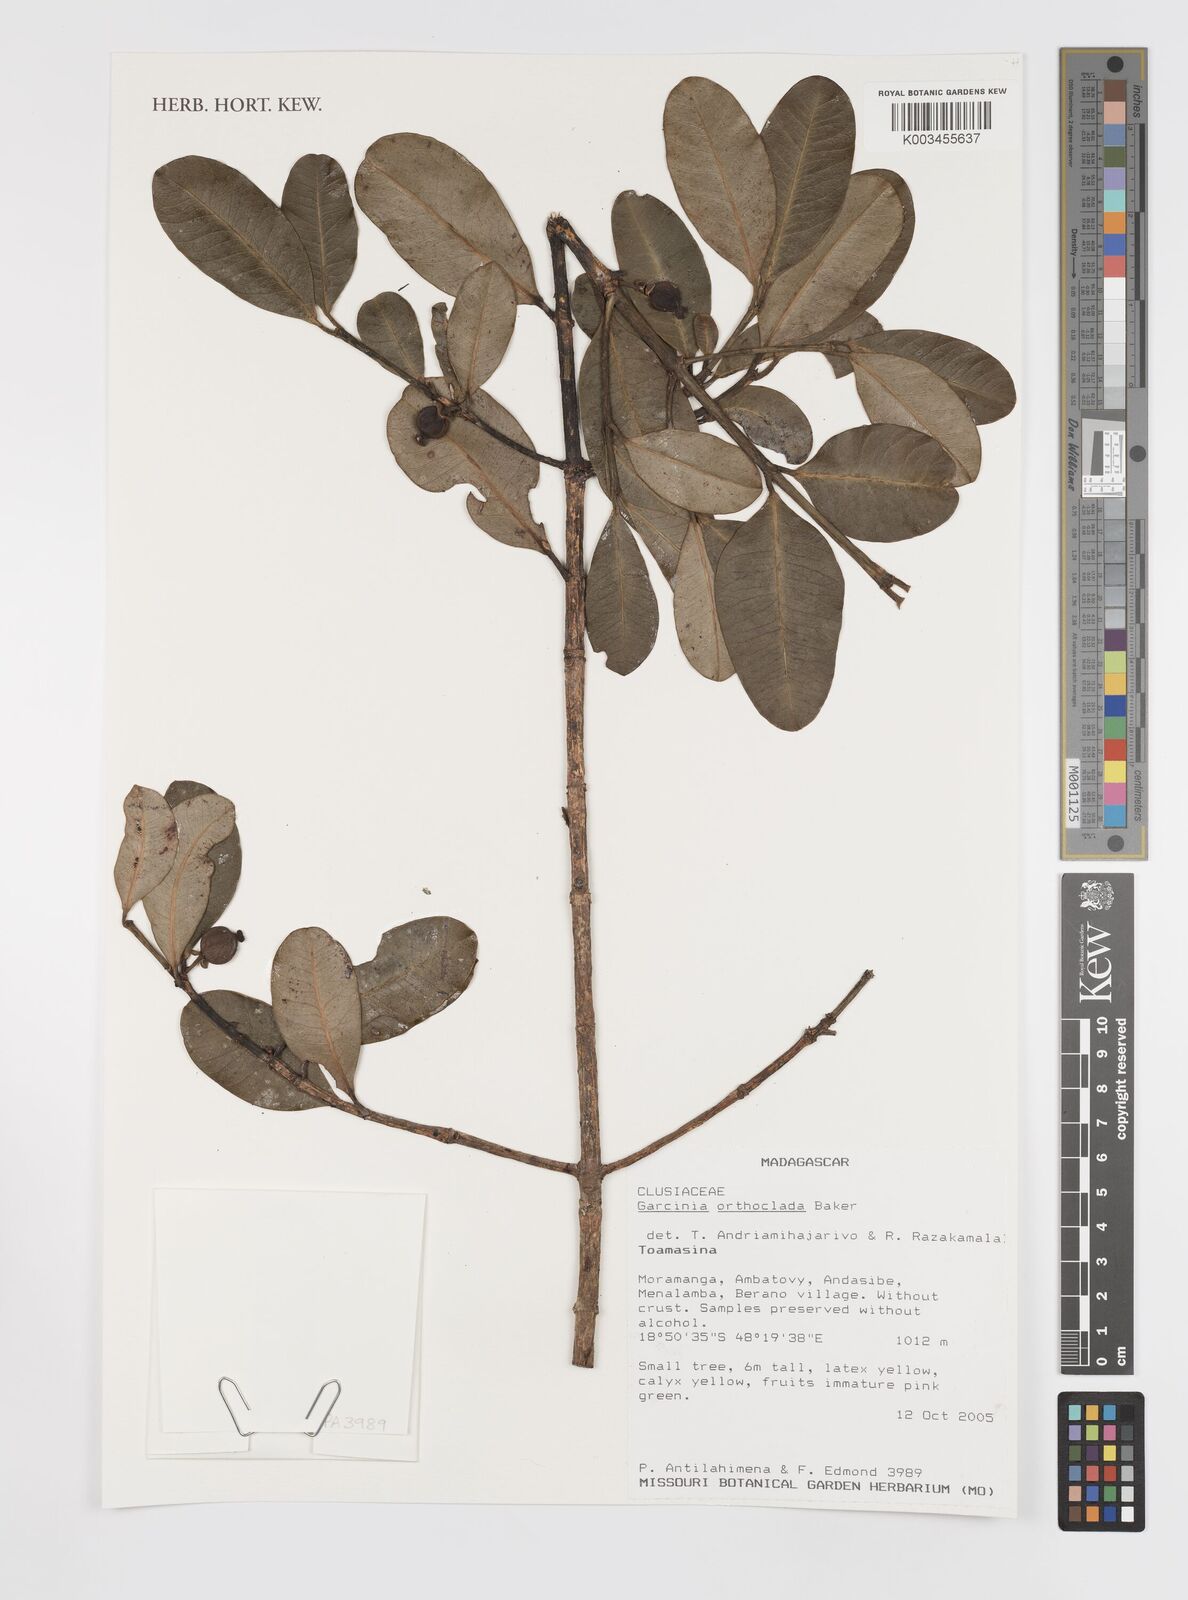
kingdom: Plantae
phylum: Tracheophyta
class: Magnoliopsida
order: Malpighiales
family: Clusiaceae
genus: Garcinia
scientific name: Garcinia orthoclada
